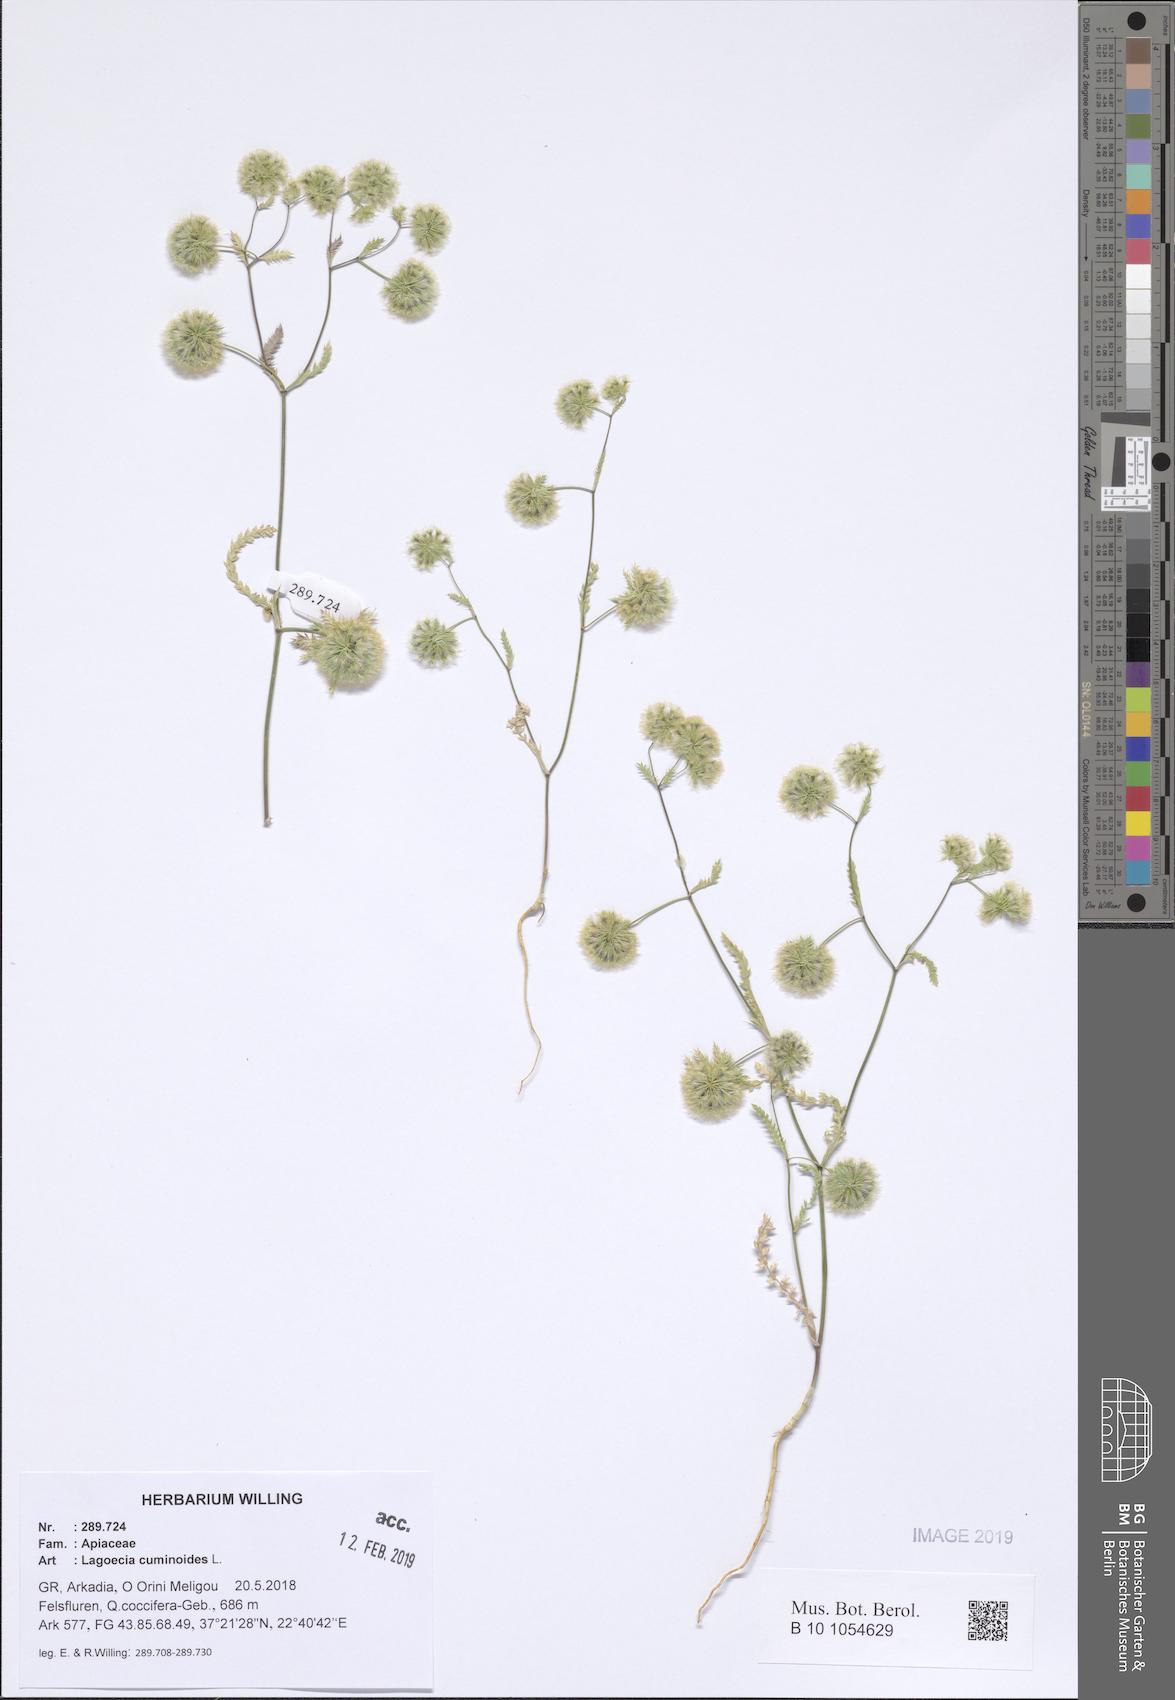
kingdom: Plantae
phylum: Tracheophyta
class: Magnoliopsida
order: Apiales
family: Apiaceae
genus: Lagoecia
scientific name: Lagoecia cuminoides
